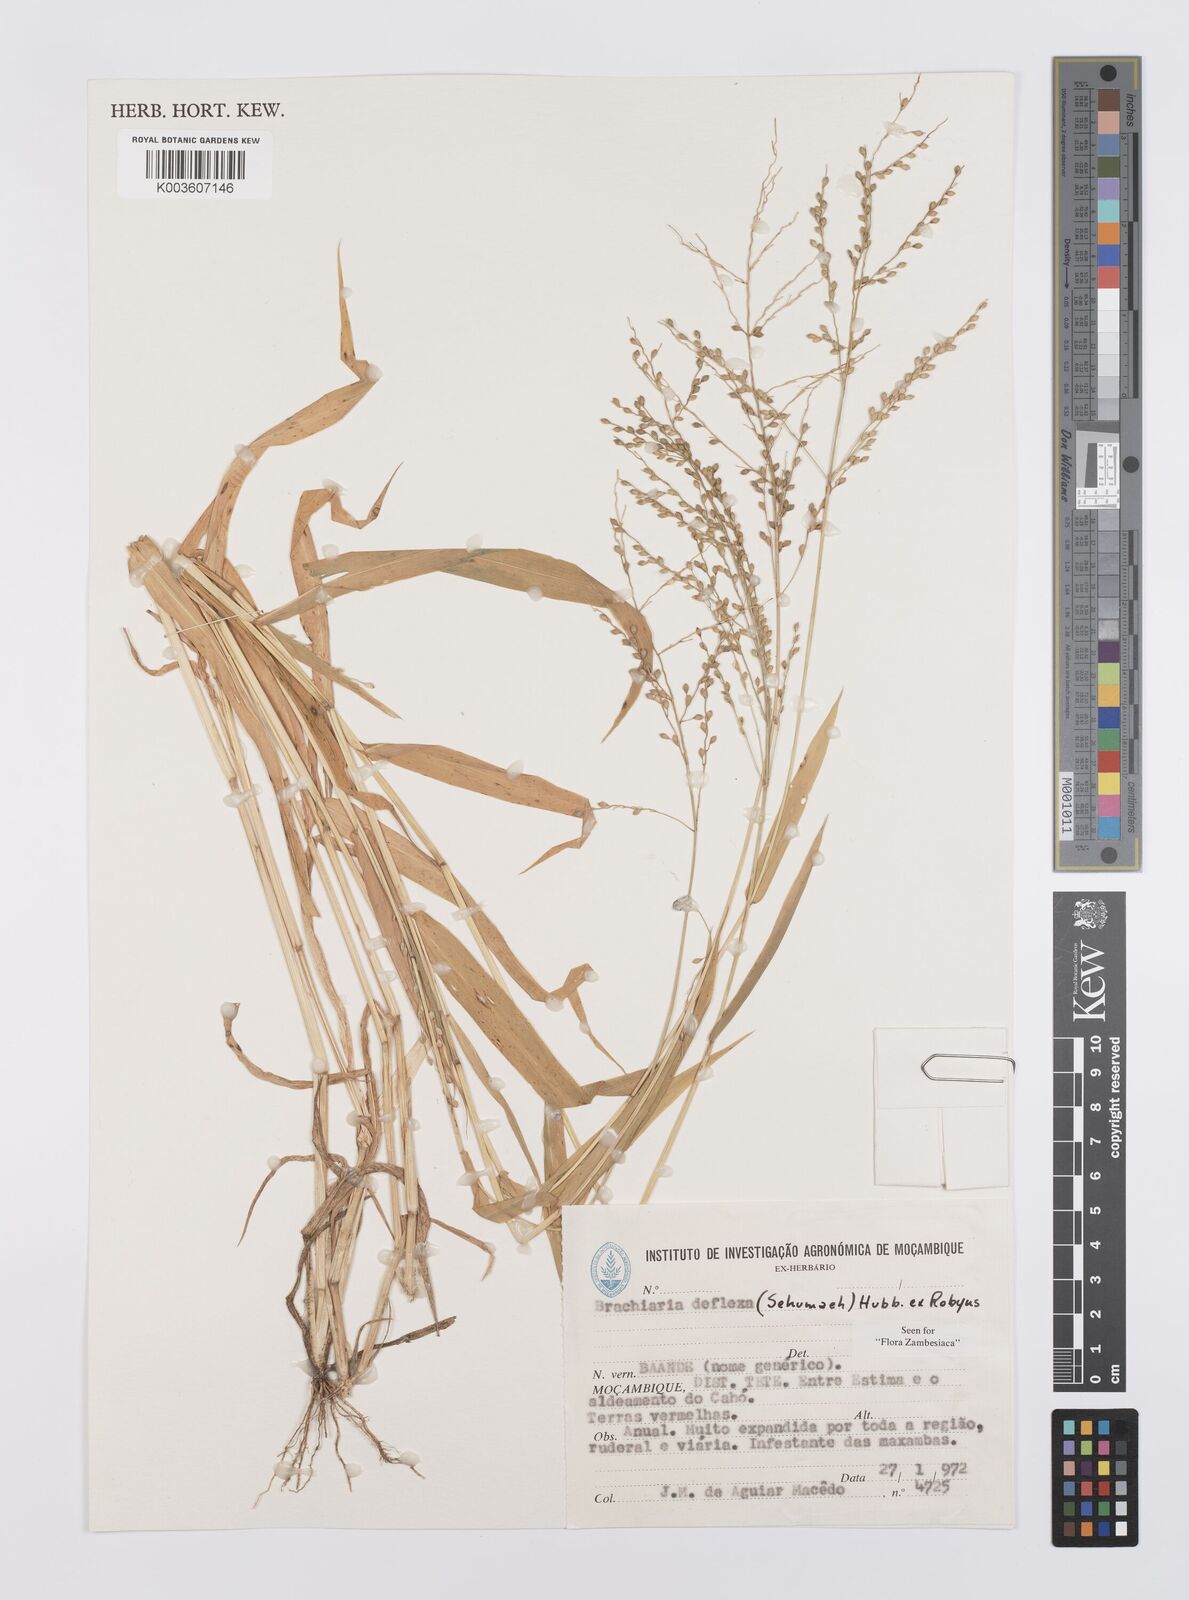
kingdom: Plantae
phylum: Tracheophyta
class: Liliopsida
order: Poales
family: Poaceae
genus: Urochloa
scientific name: Urochloa deflexa
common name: Guinea millet
